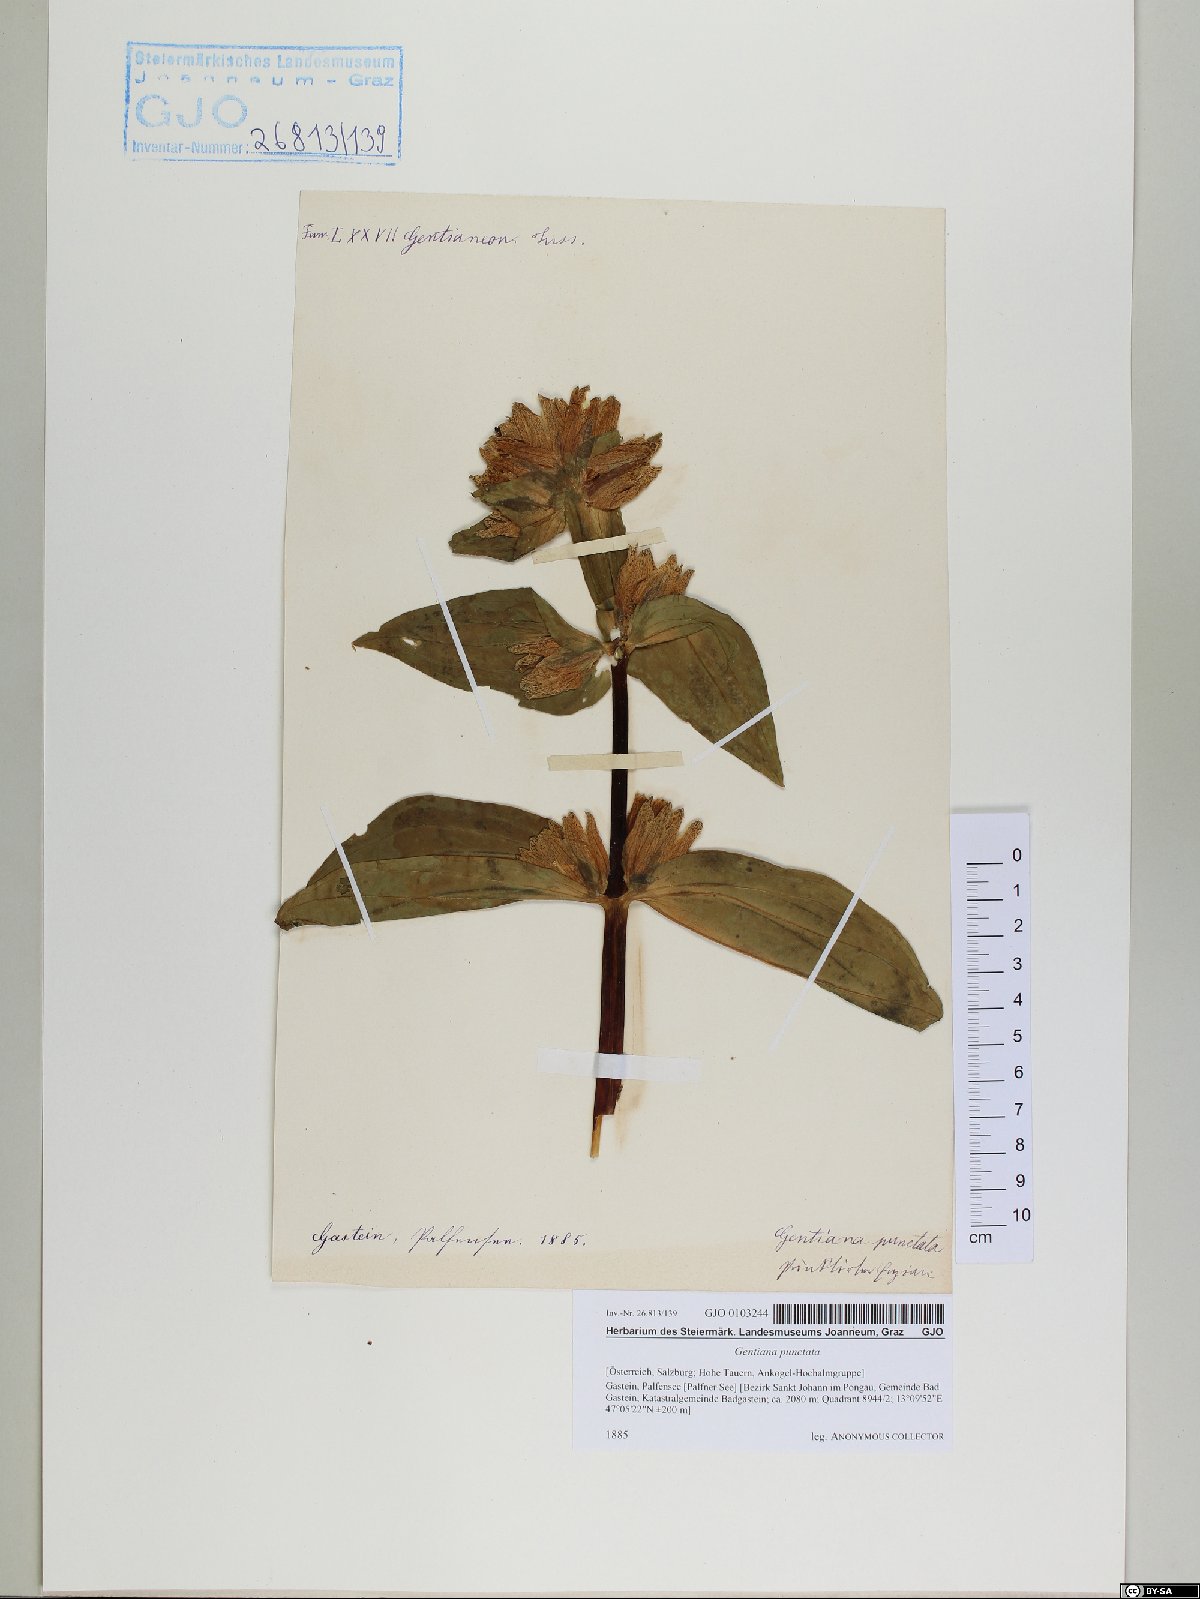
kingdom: Plantae
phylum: Tracheophyta
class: Magnoliopsida
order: Gentianales
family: Gentianaceae
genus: Gentiana
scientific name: Gentiana punctata
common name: Spotted gentian
